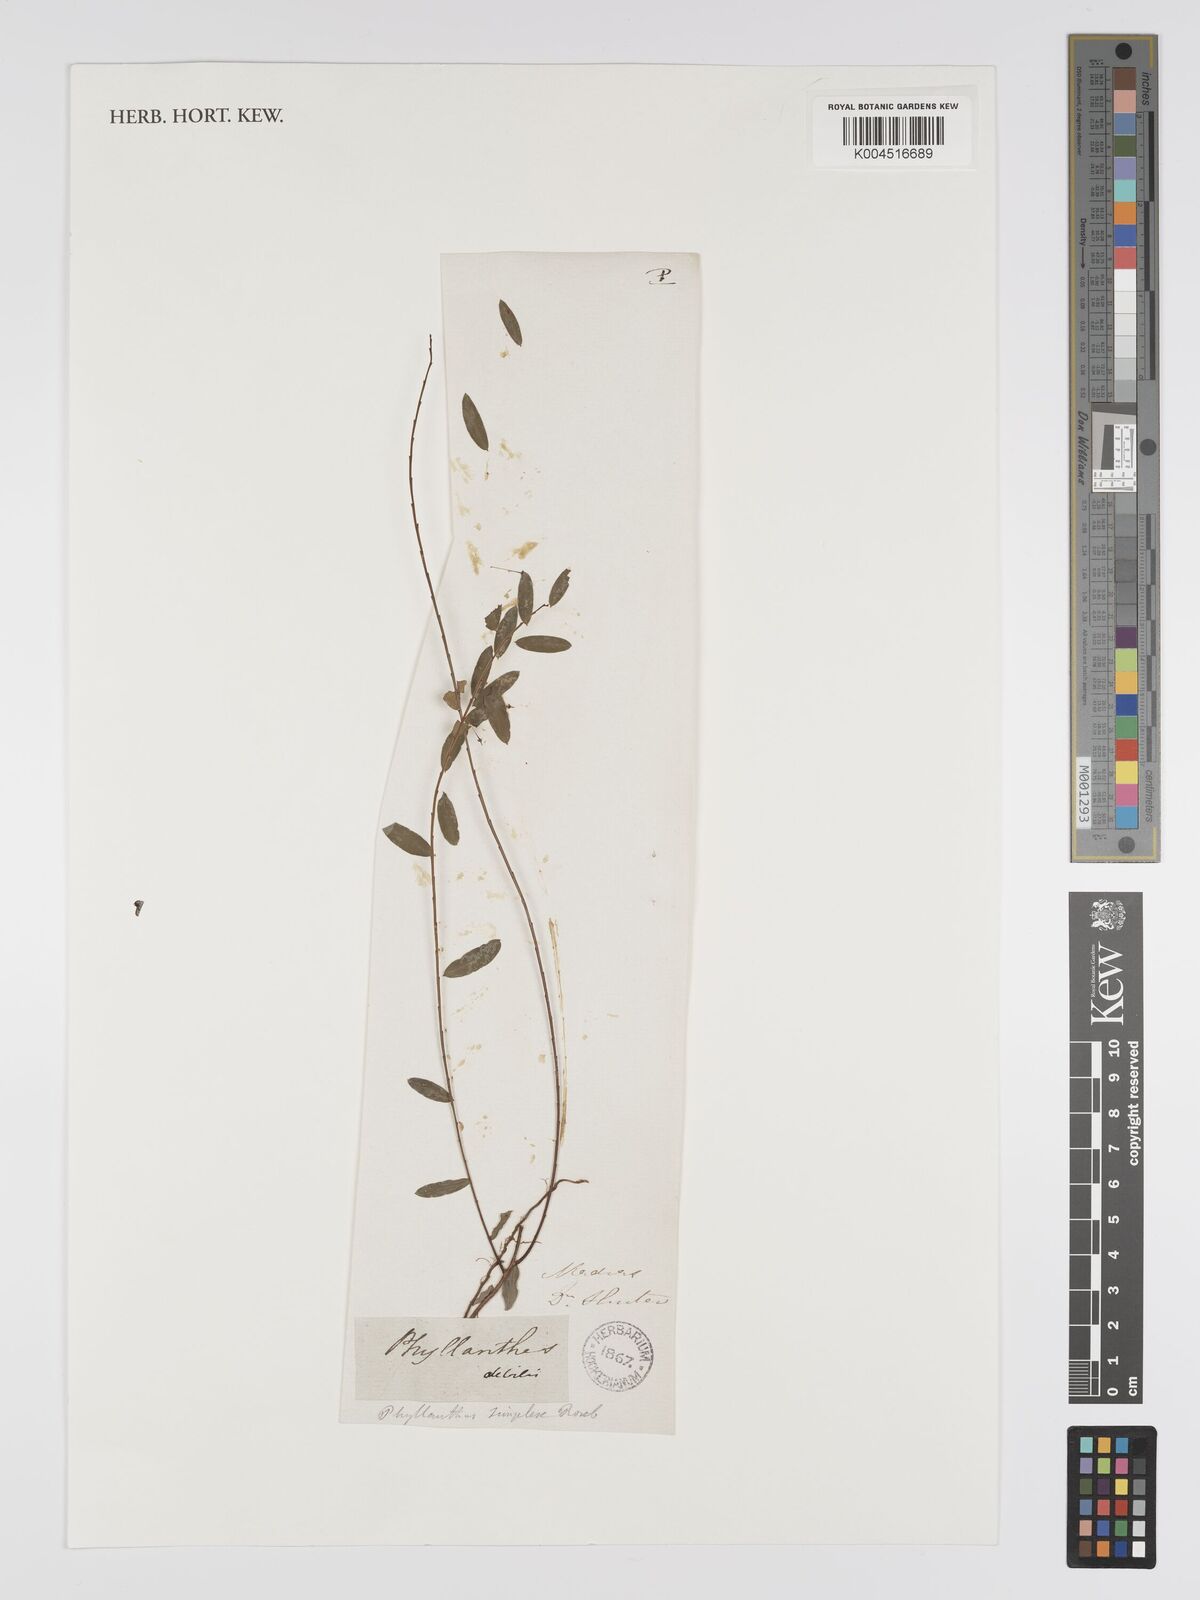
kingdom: Plantae
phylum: Tracheophyta
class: Magnoliopsida
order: Malpighiales
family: Phyllanthaceae
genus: Phyllanthus
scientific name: Phyllanthus virgatus
